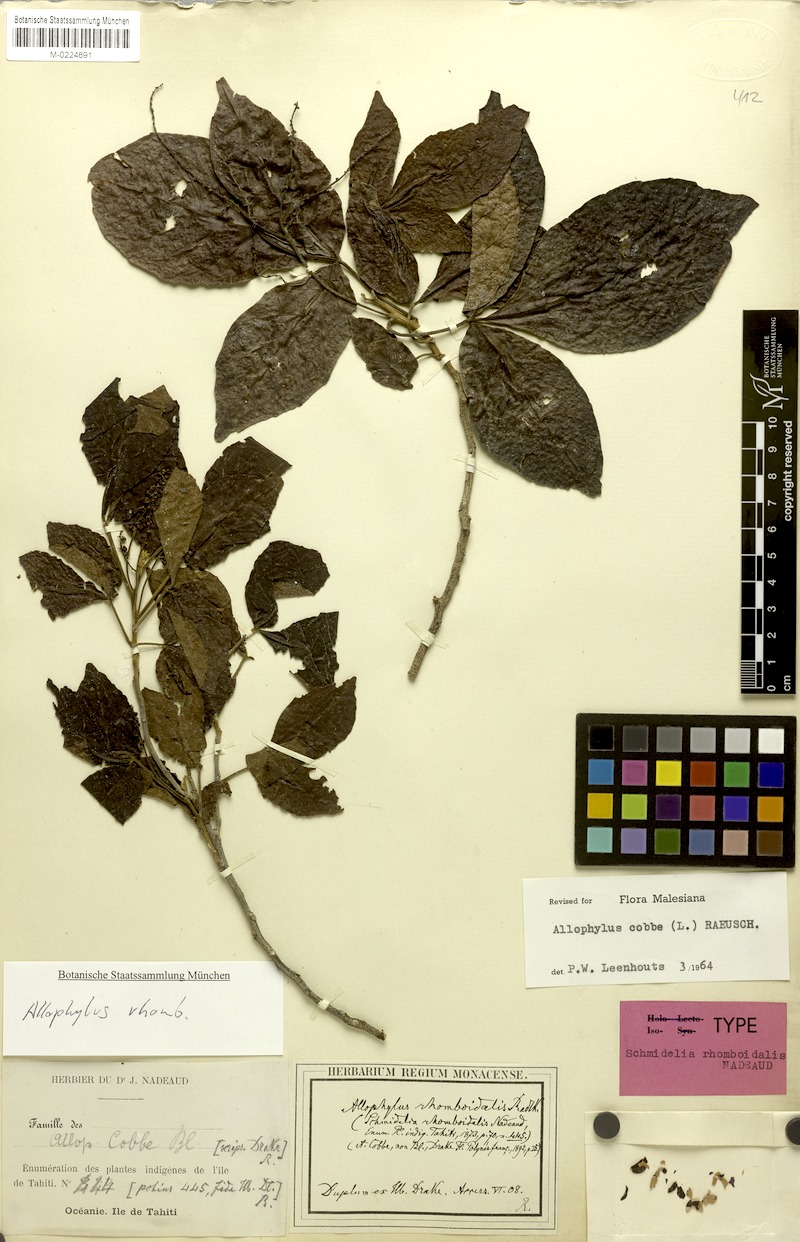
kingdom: Plantae
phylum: Tracheophyta
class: Magnoliopsida
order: Sapindales
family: Sapindaceae
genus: Allophylus
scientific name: Allophylus timorensis
